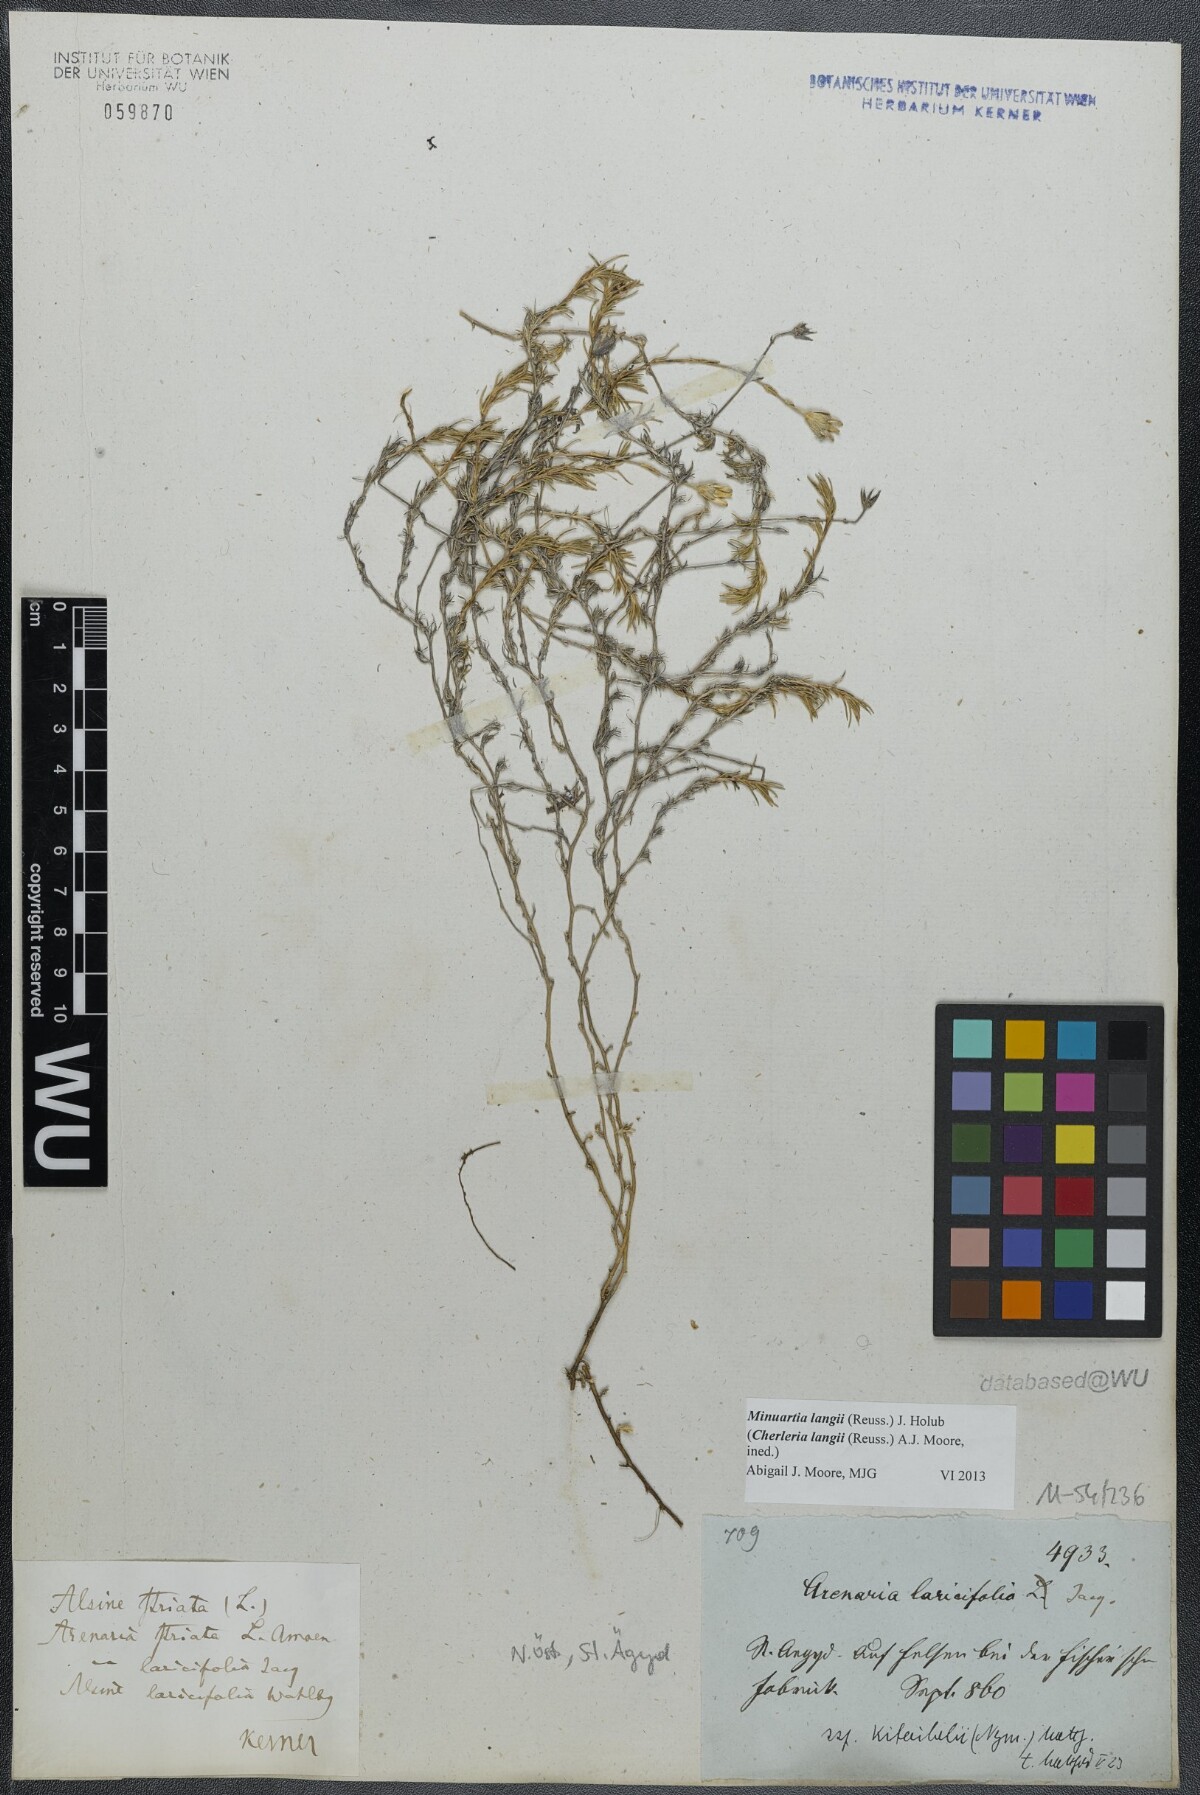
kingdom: Plantae
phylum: Tracheophyta
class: Magnoliopsida
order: Caryophyllales
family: Caryophyllaceae
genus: Cherleria
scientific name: Cherleria langii
